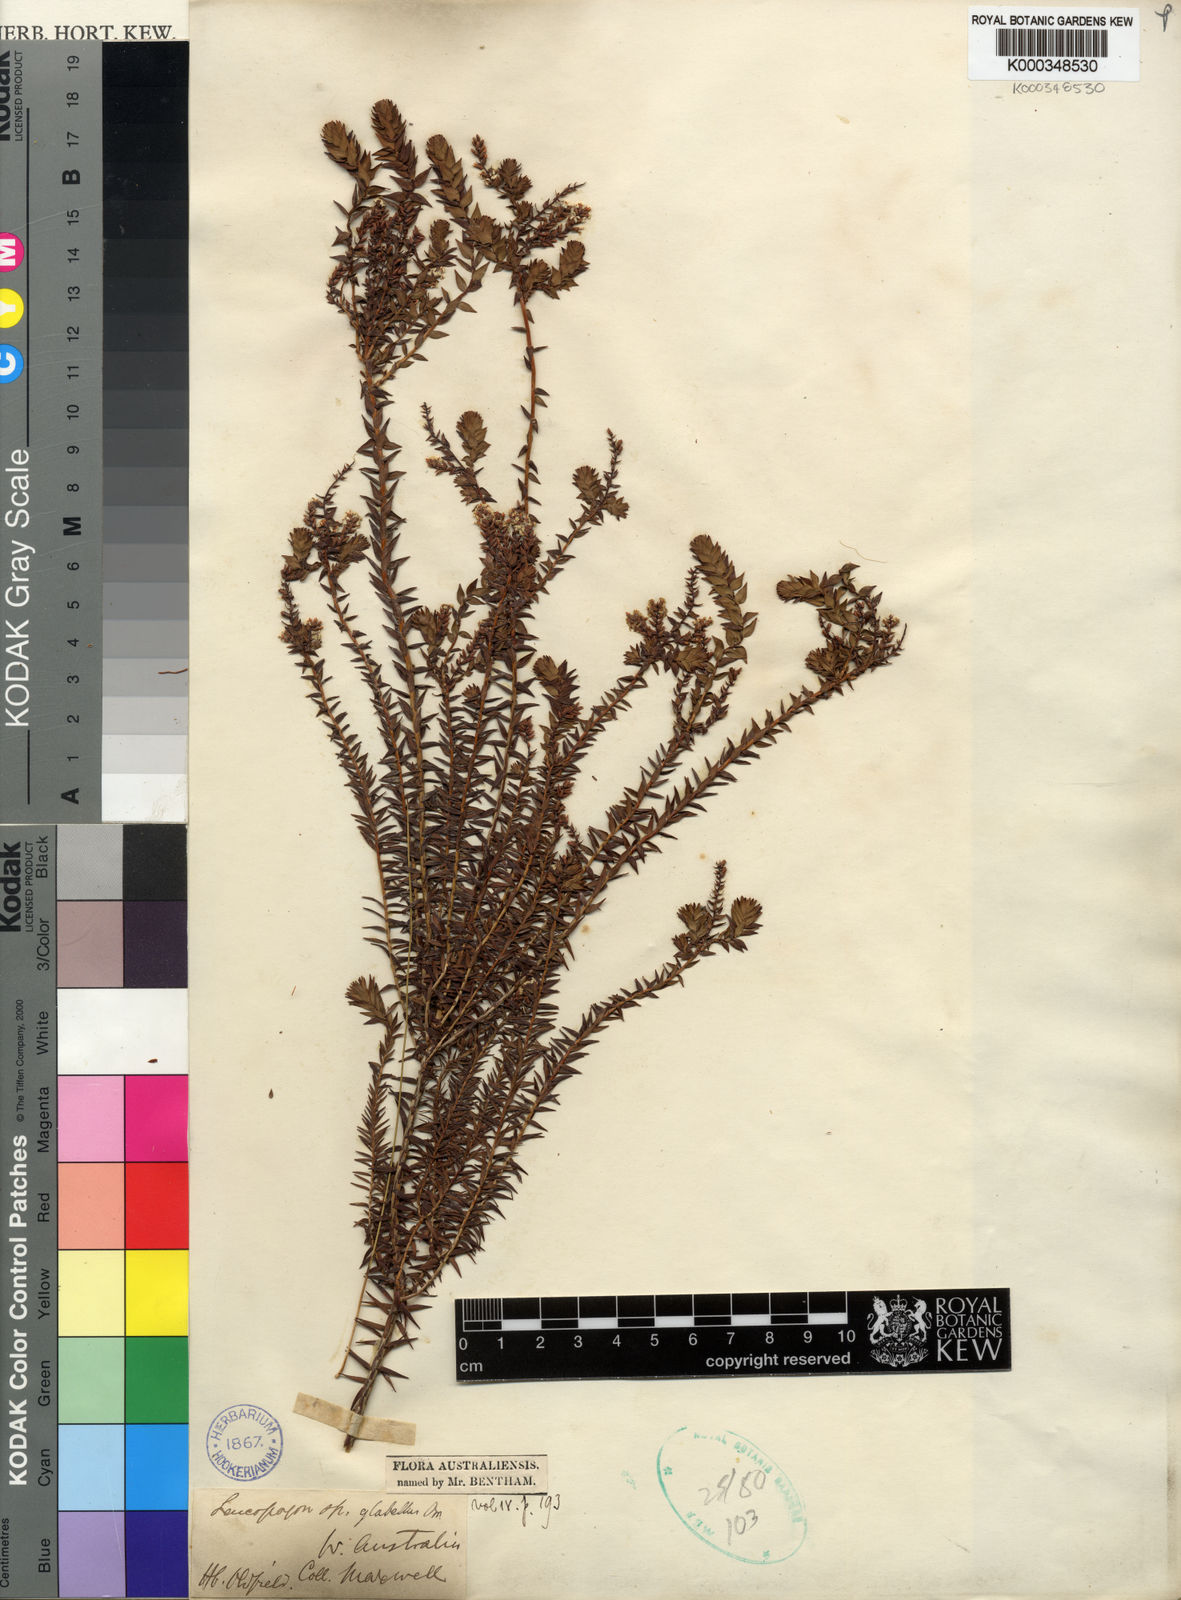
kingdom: Plantae
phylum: Tracheophyta
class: Magnoliopsida
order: Ericales
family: Ericaceae
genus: Leucopogon
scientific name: Leucopogon glabellus
